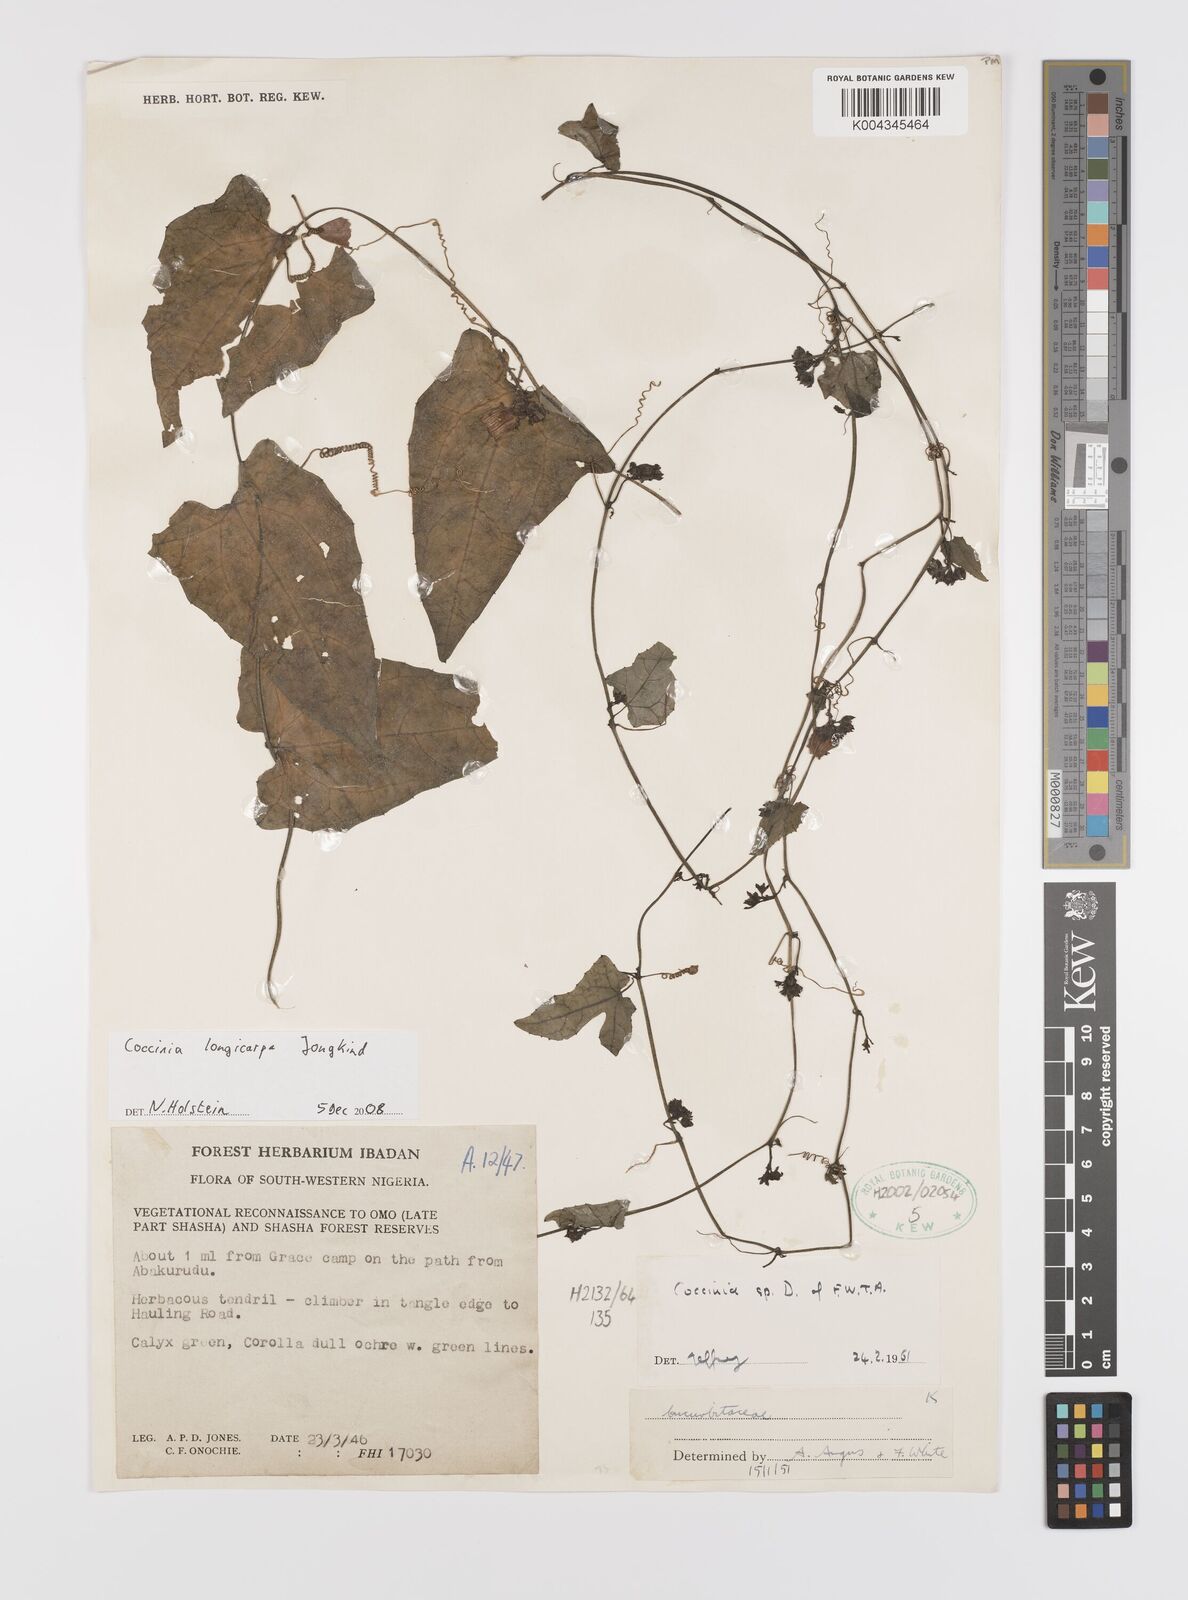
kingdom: Plantae
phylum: Tracheophyta
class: Magnoliopsida
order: Cucurbitales
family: Cucurbitaceae
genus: Coccinia
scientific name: Coccinia longicarpa
